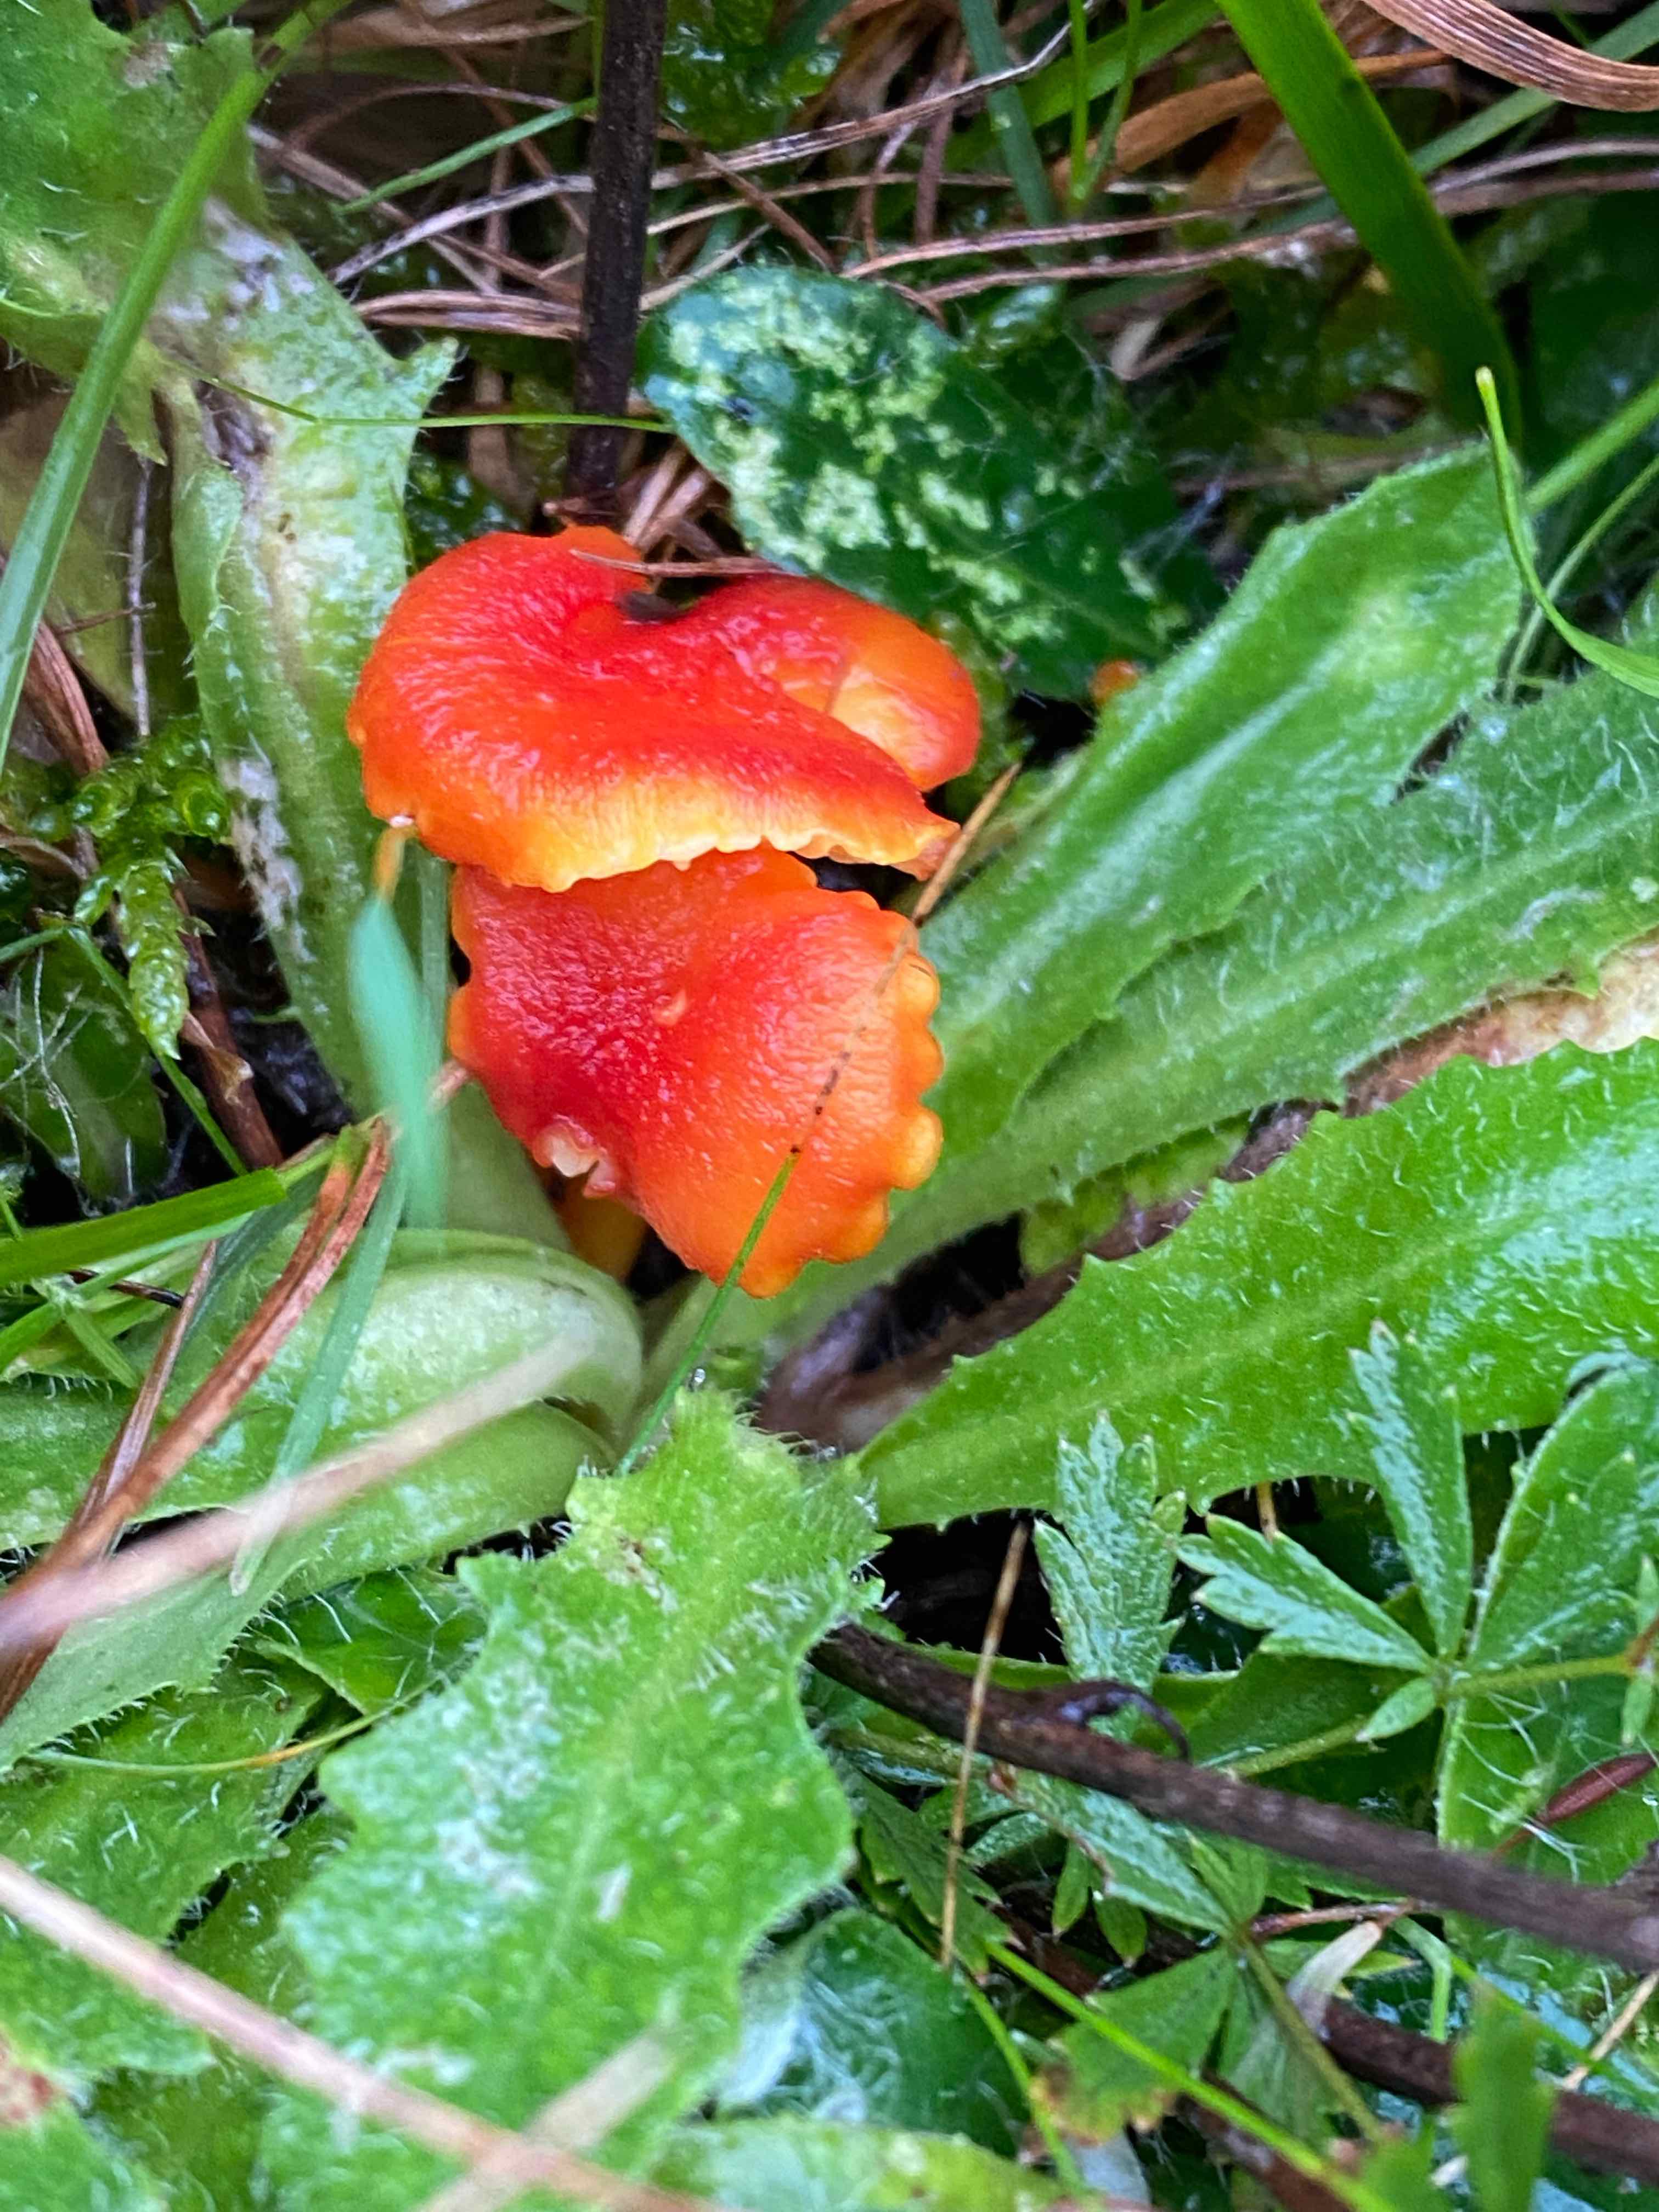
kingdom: Fungi
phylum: Basidiomycota
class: Agaricomycetes
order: Agaricales
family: Hygrophoraceae
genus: Hygrocybe
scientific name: Hygrocybe cantharellus
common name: kantarel-vokshat
